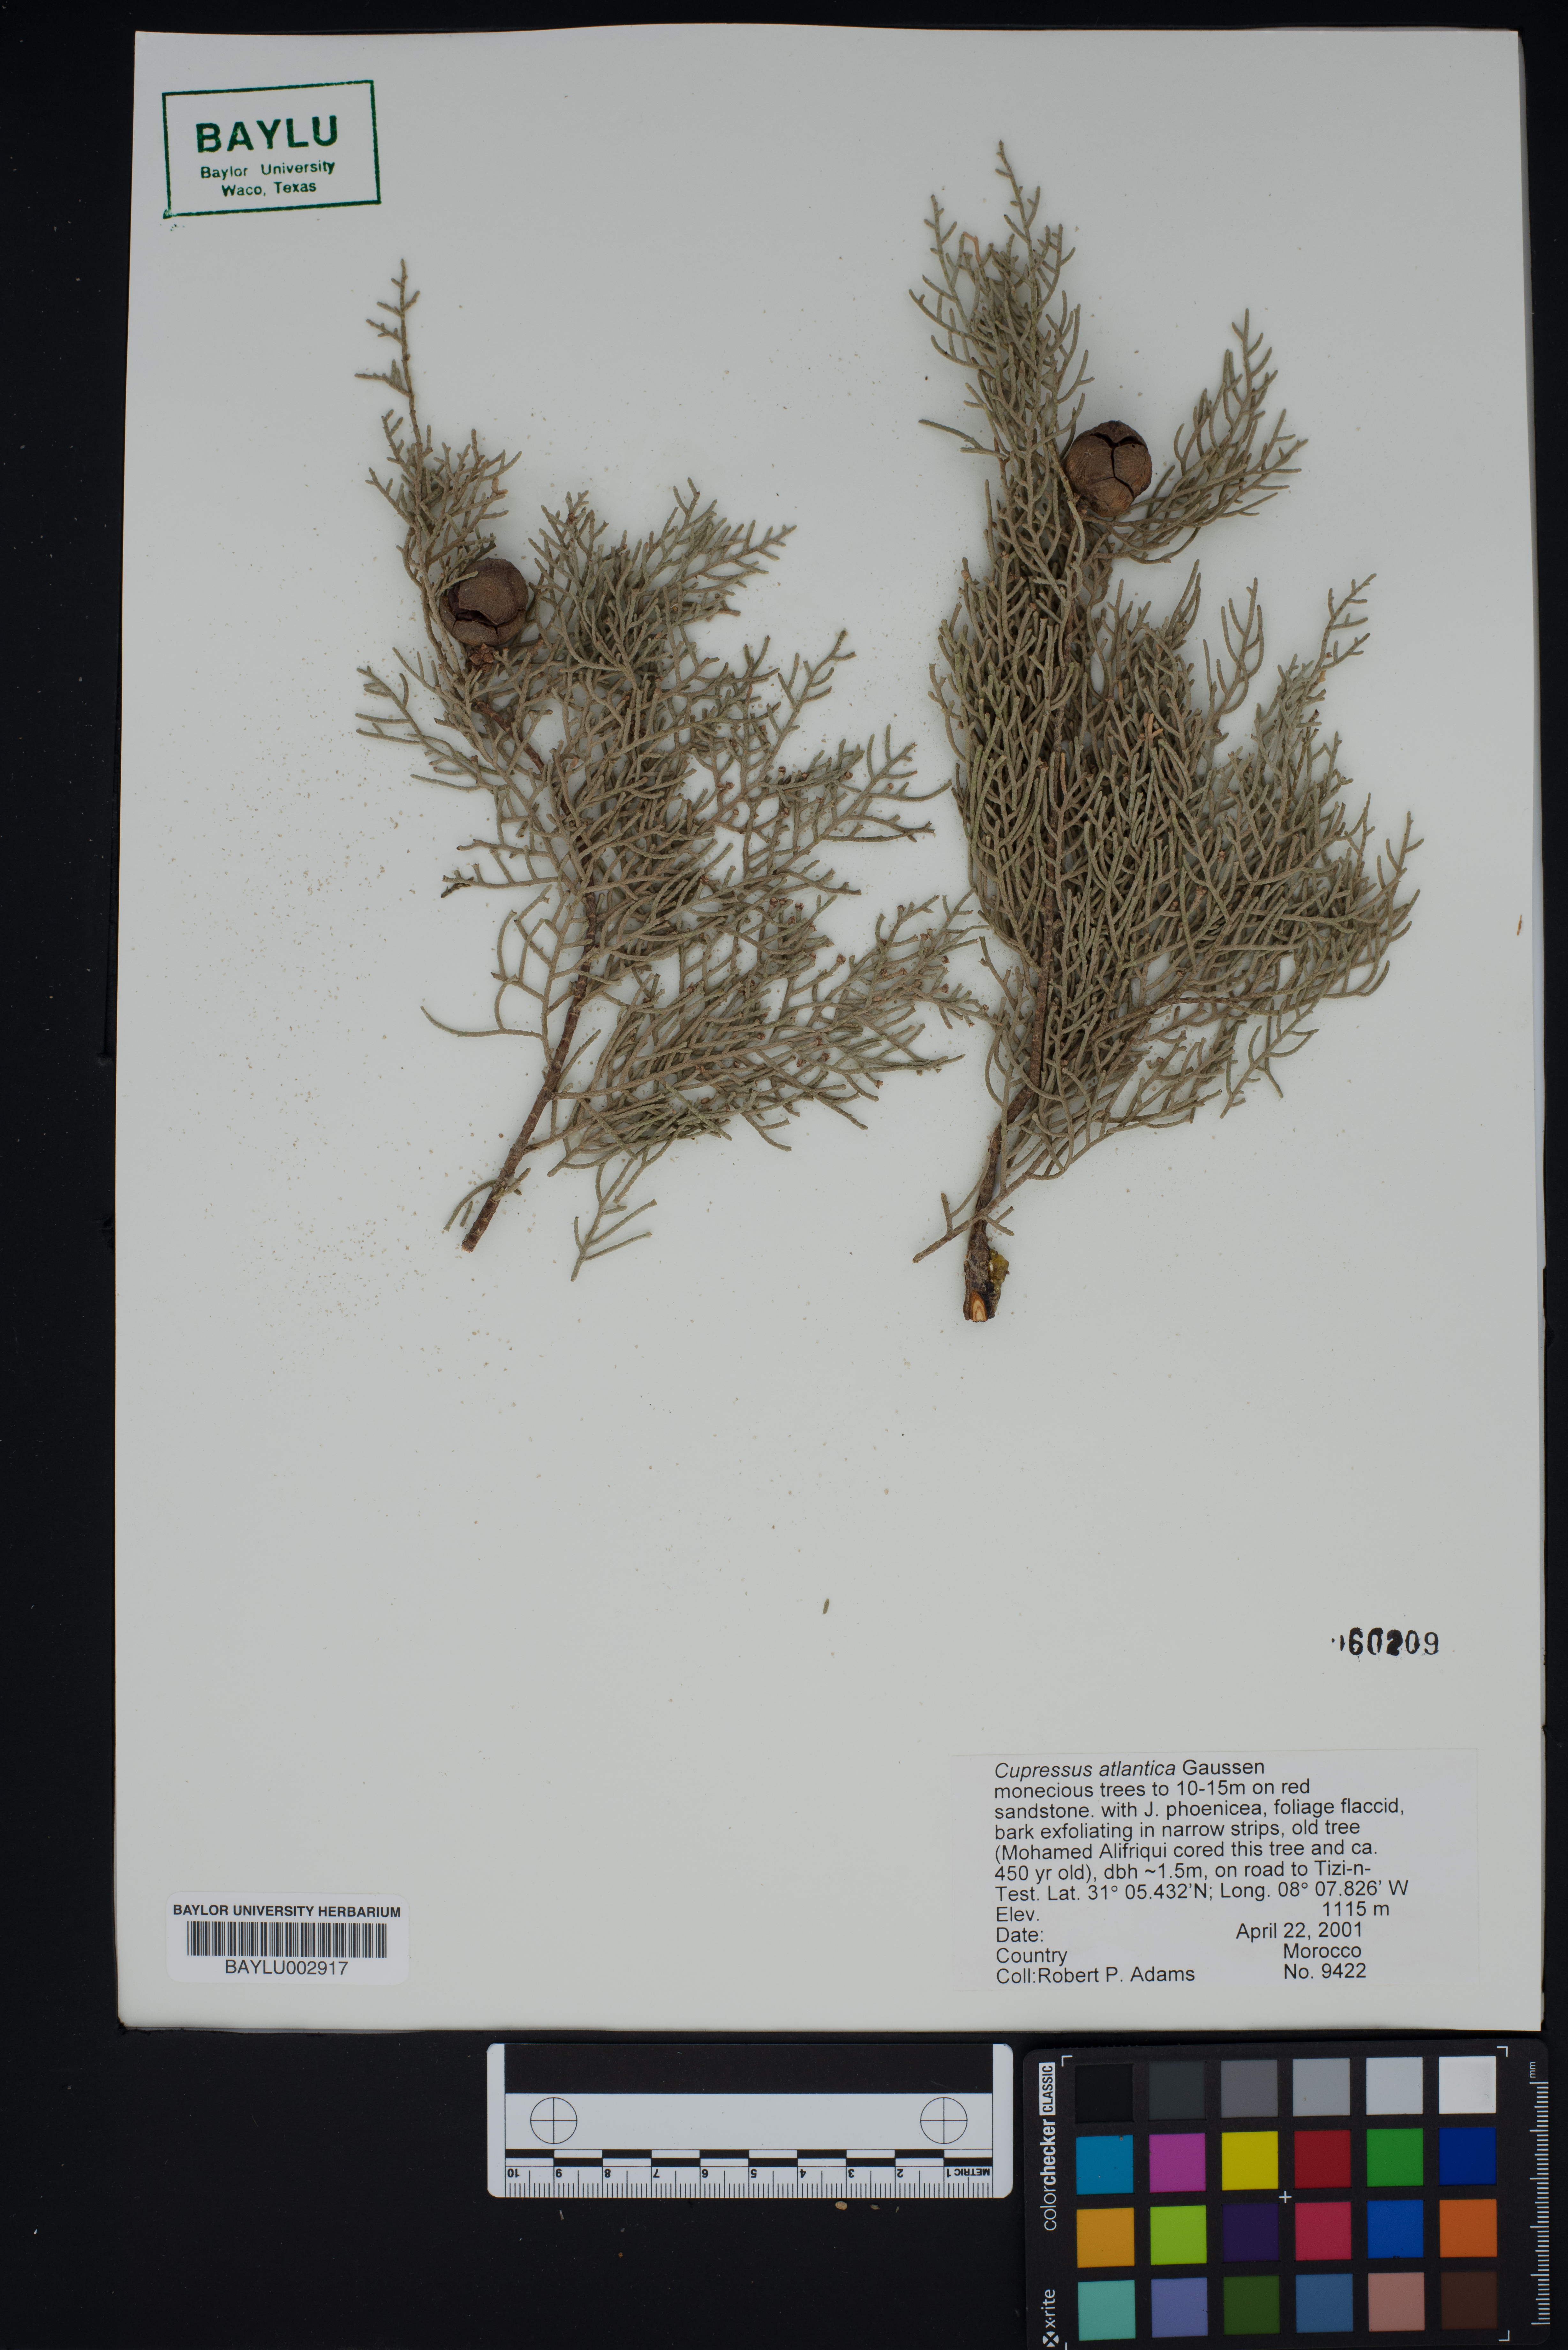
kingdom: Plantae
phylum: Tracheophyta
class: Pinopsida
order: Pinales
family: Cupressaceae
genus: Cupressus
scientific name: Cupressus dupreziana
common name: Moroccan cypress
